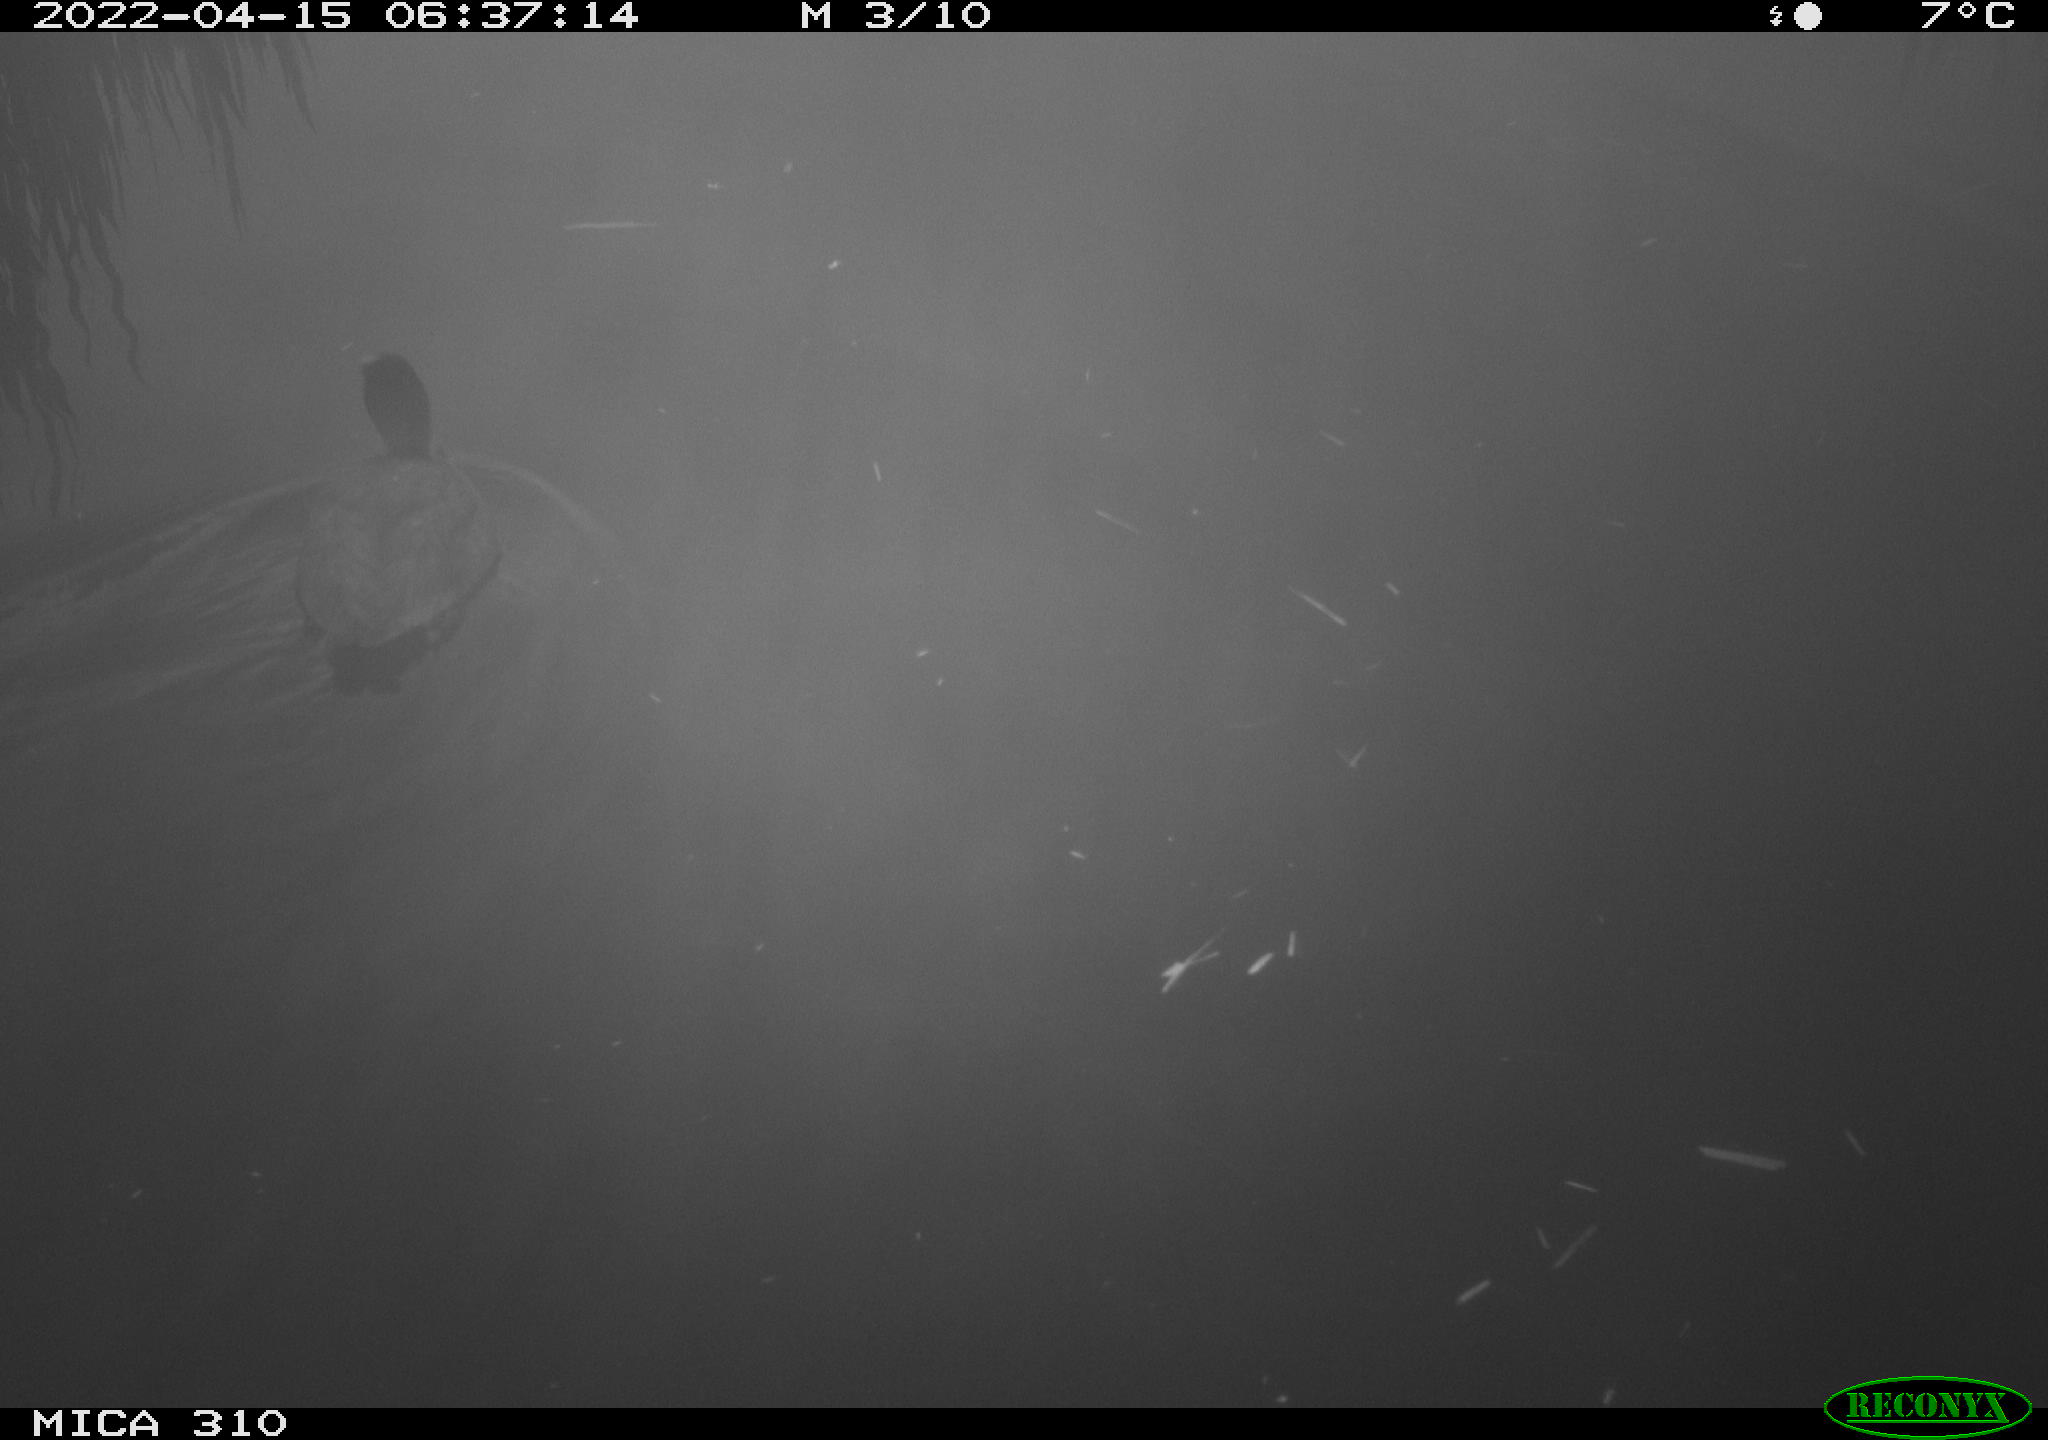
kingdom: Animalia
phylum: Chordata
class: Aves
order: Gruiformes
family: Rallidae
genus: Fulica
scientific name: Fulica atra
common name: Eurasian coot
